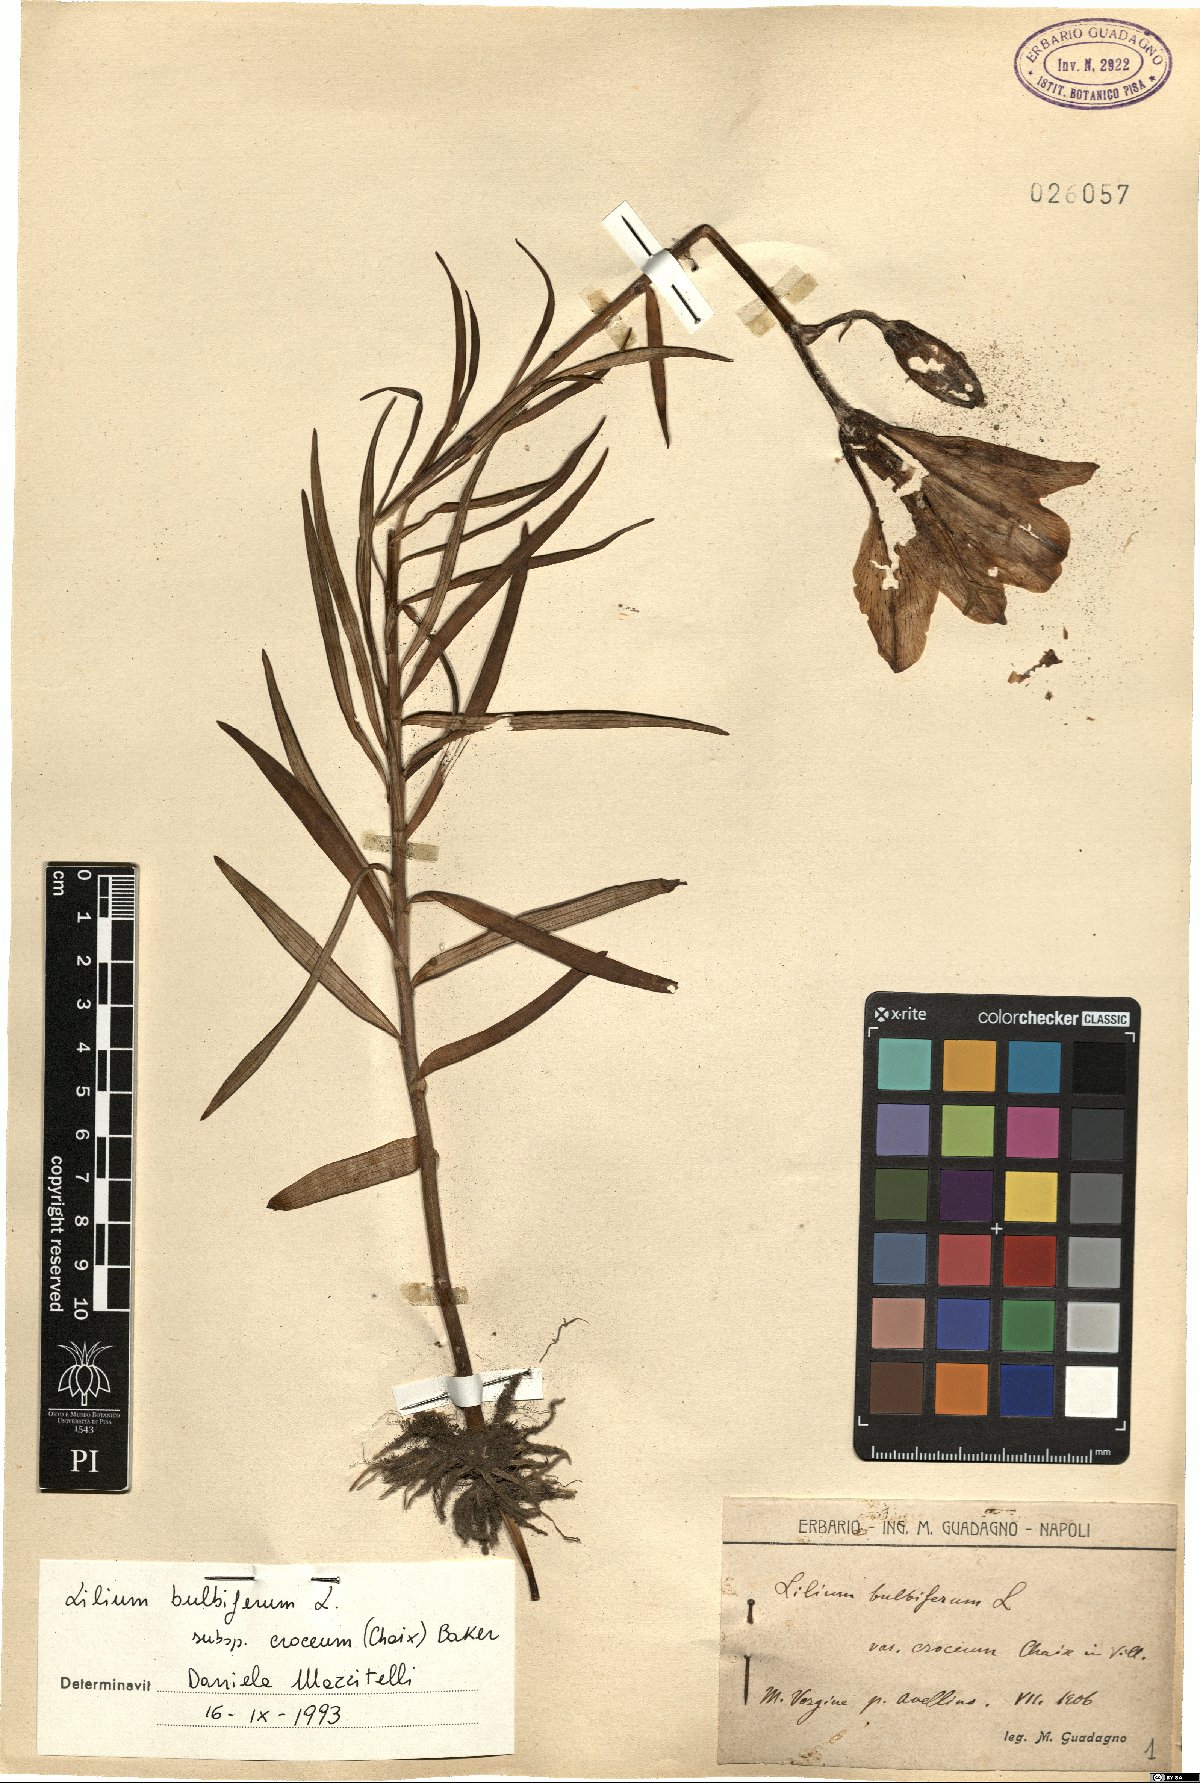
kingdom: Plantae
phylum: Tracheophyta
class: Liliopsida
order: Liliales
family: Liliaceae
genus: Lilium
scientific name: Lilium bulbiferum
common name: Orange lily
